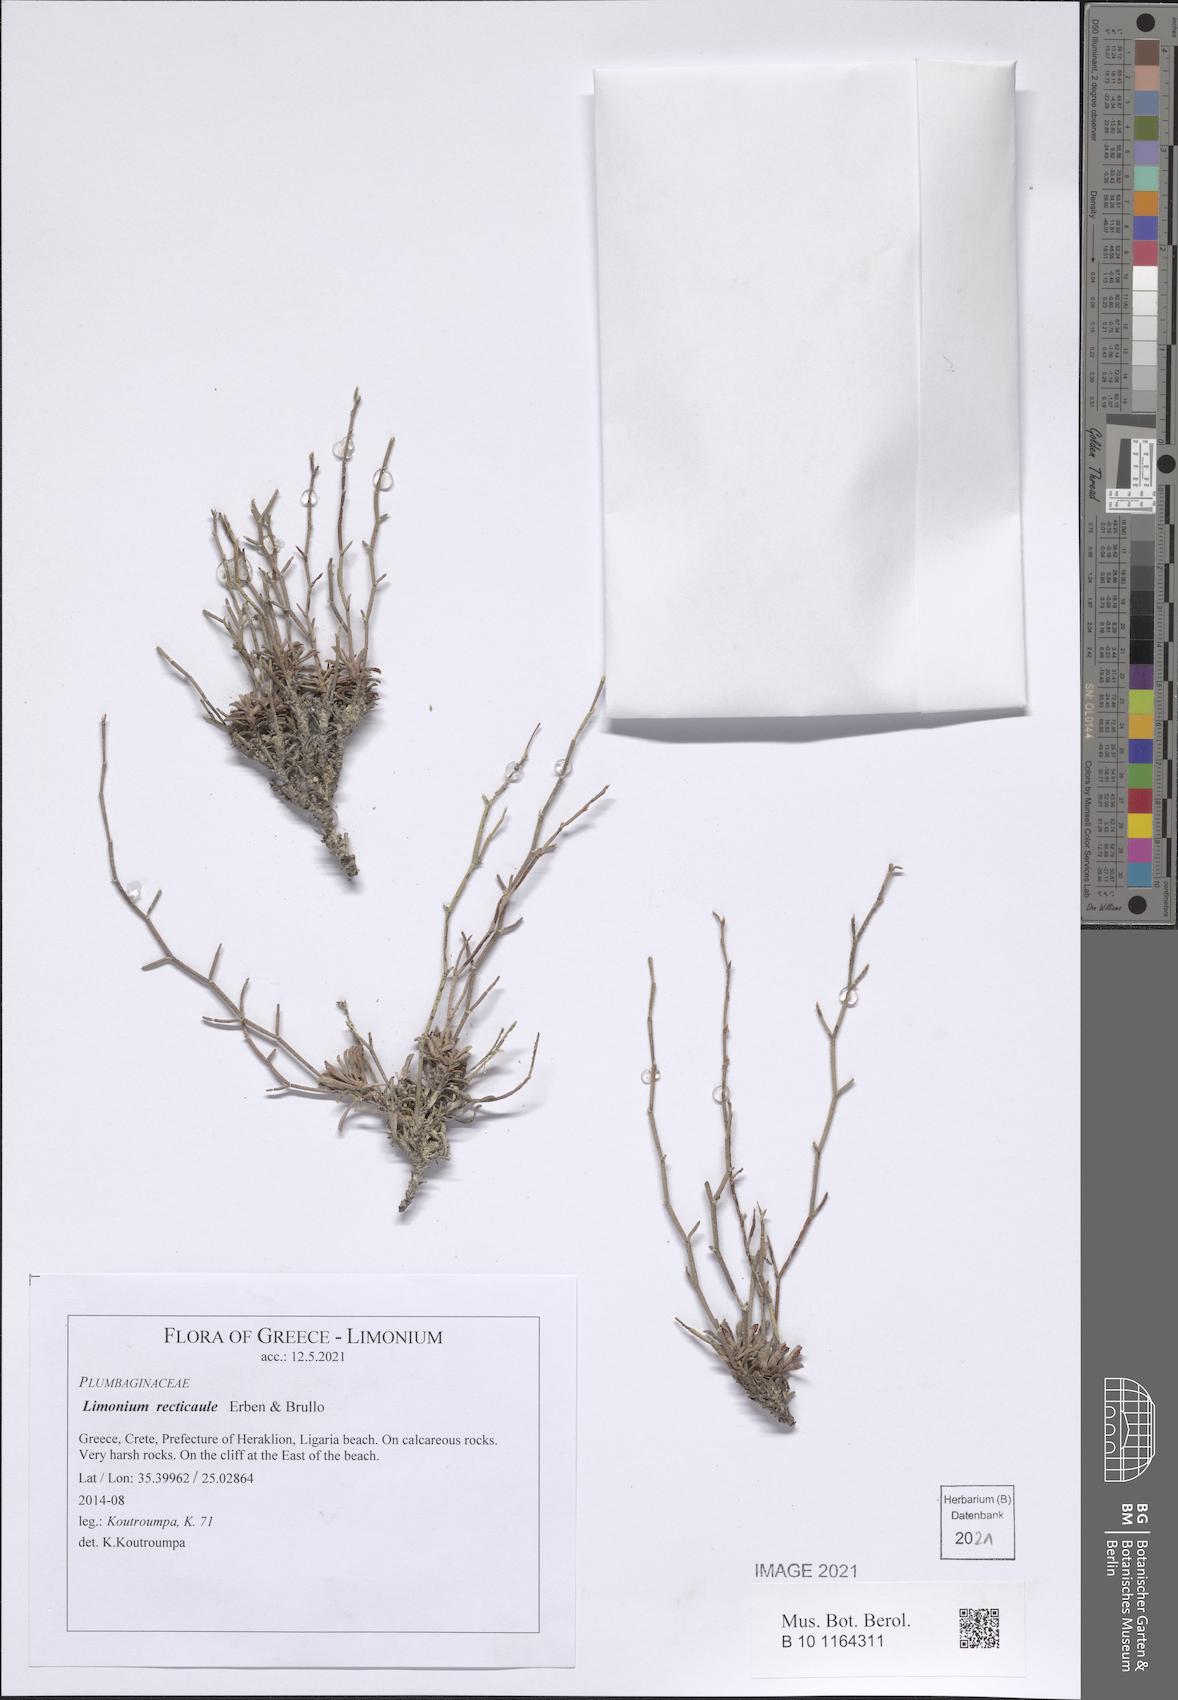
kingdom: Plantae
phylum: Tracheophyta
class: Magnoliopsida
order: Caryophyllales
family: Plumbaginaceae
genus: Limonium
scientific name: Limonium recticaule
